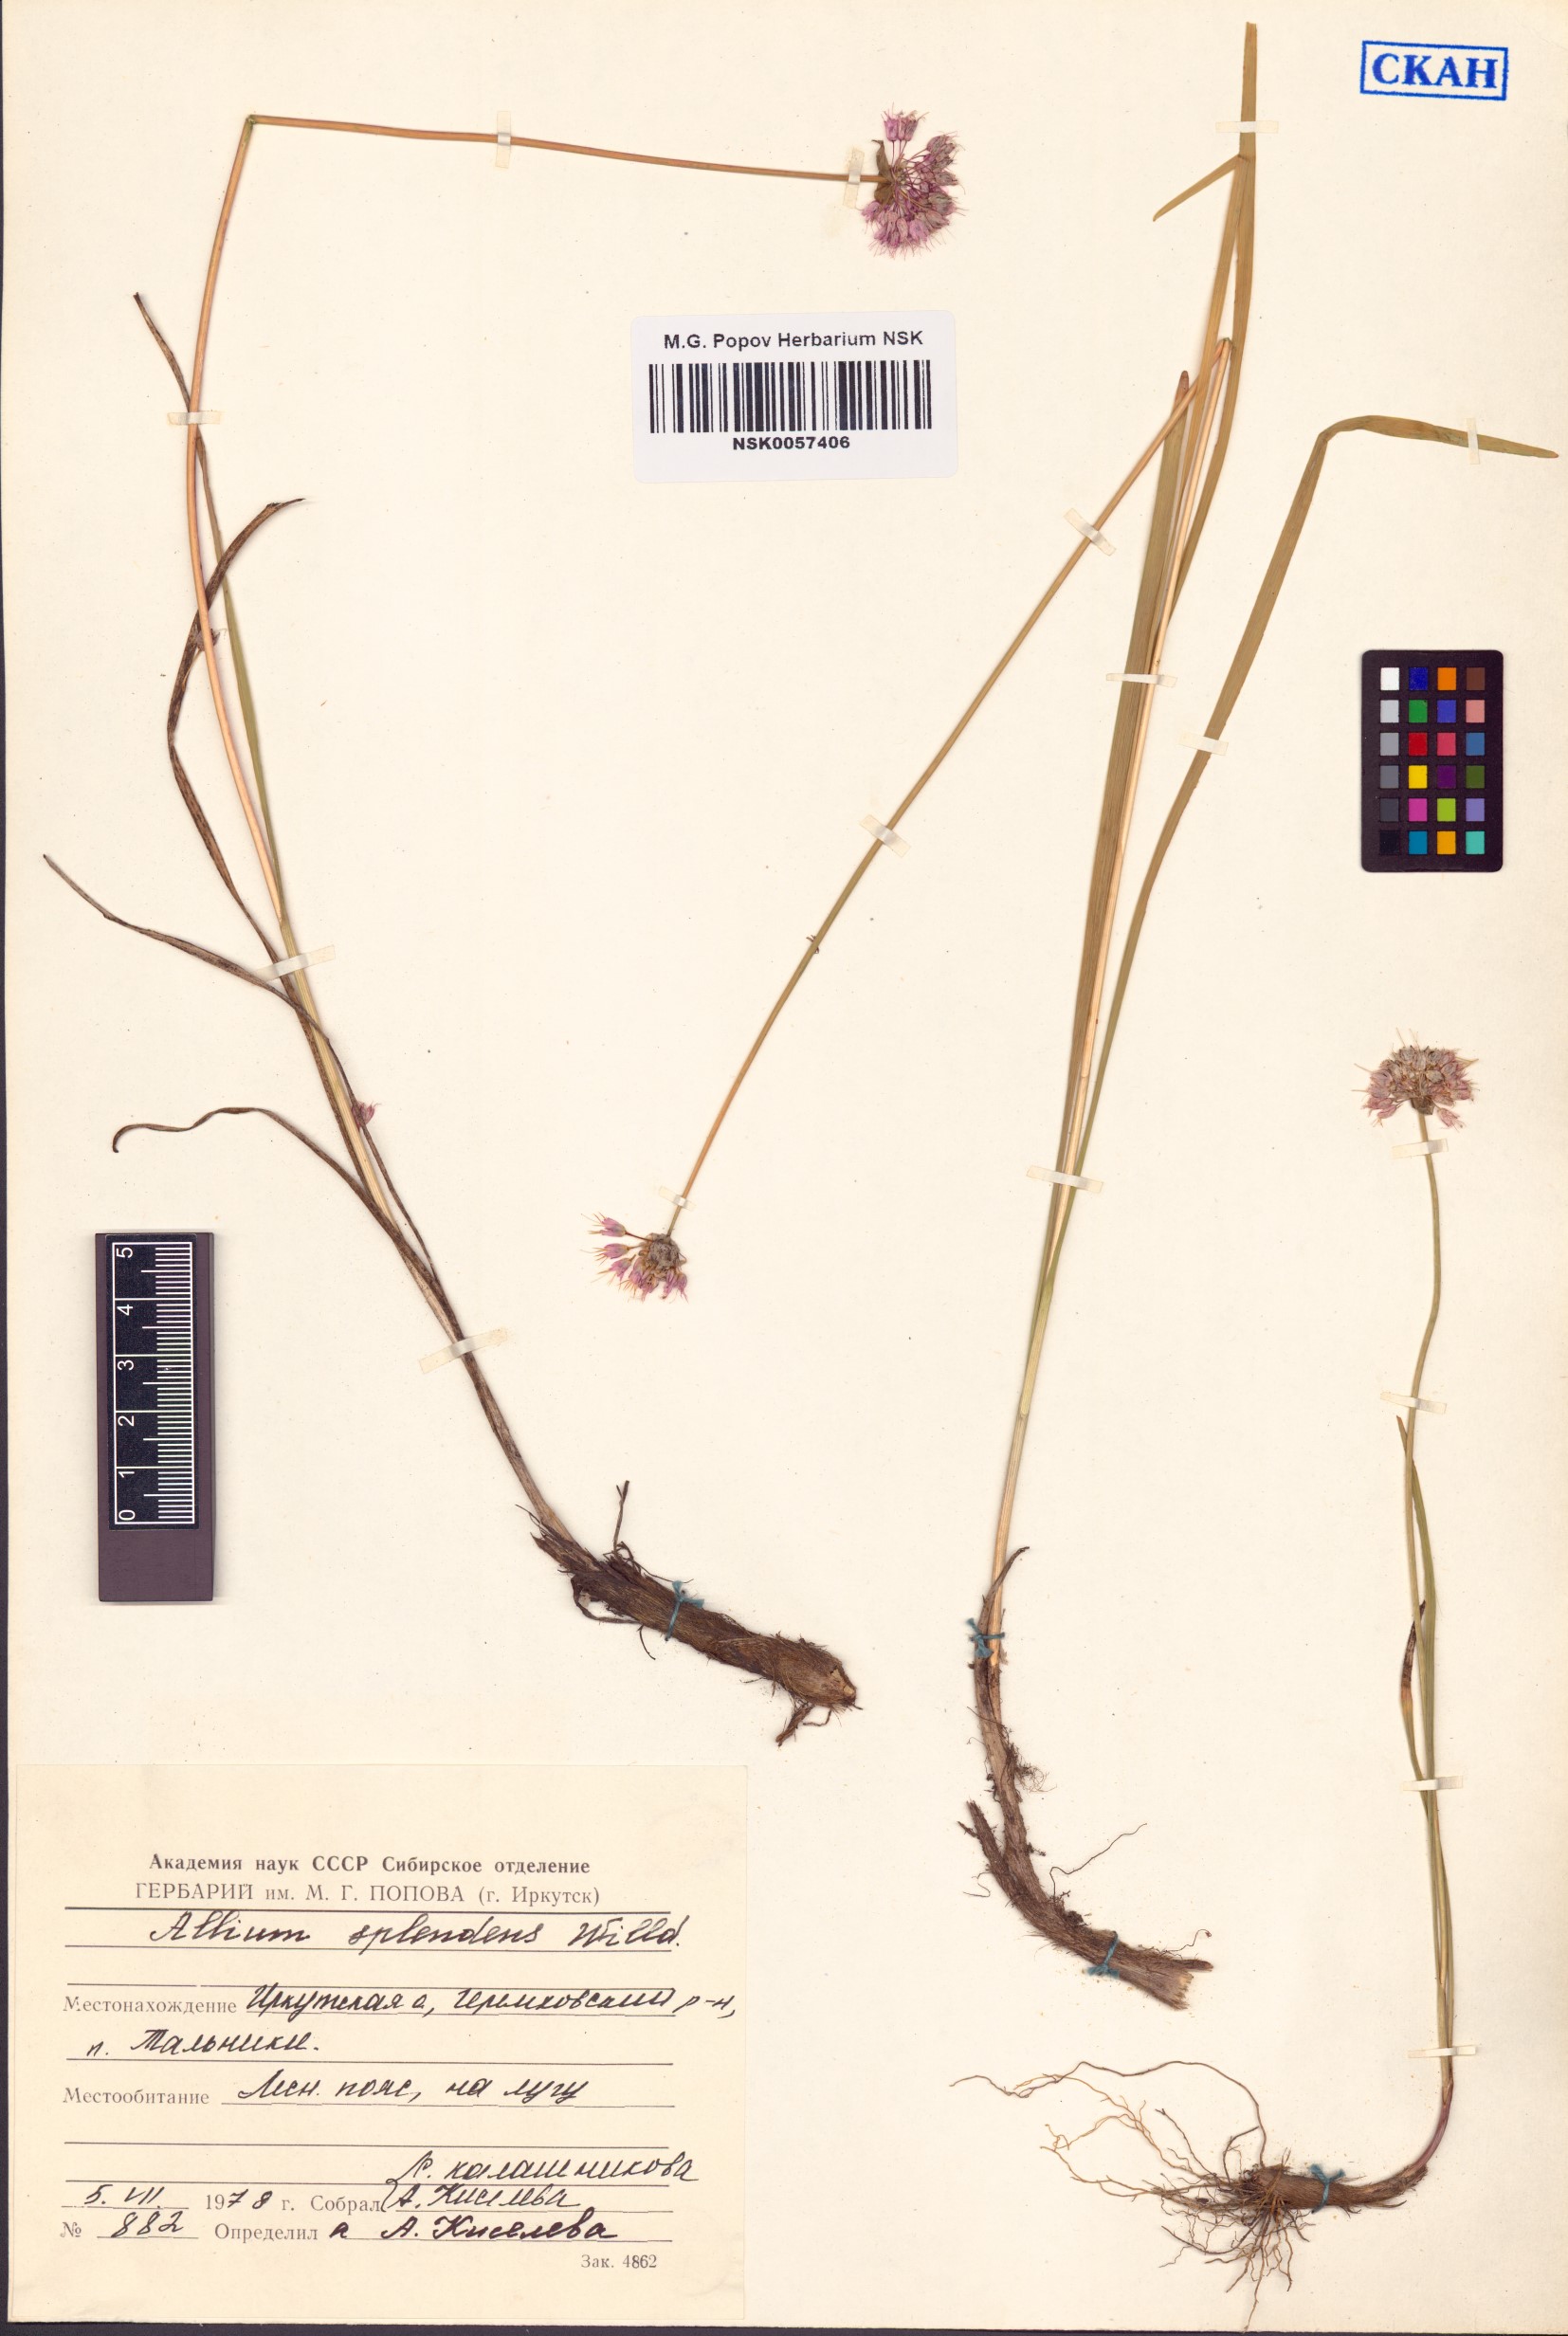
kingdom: Plantae
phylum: Tracheophyta
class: Liliopsida
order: Asparagales
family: Amaryllidaceae
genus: Allium
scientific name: Allium splendens
